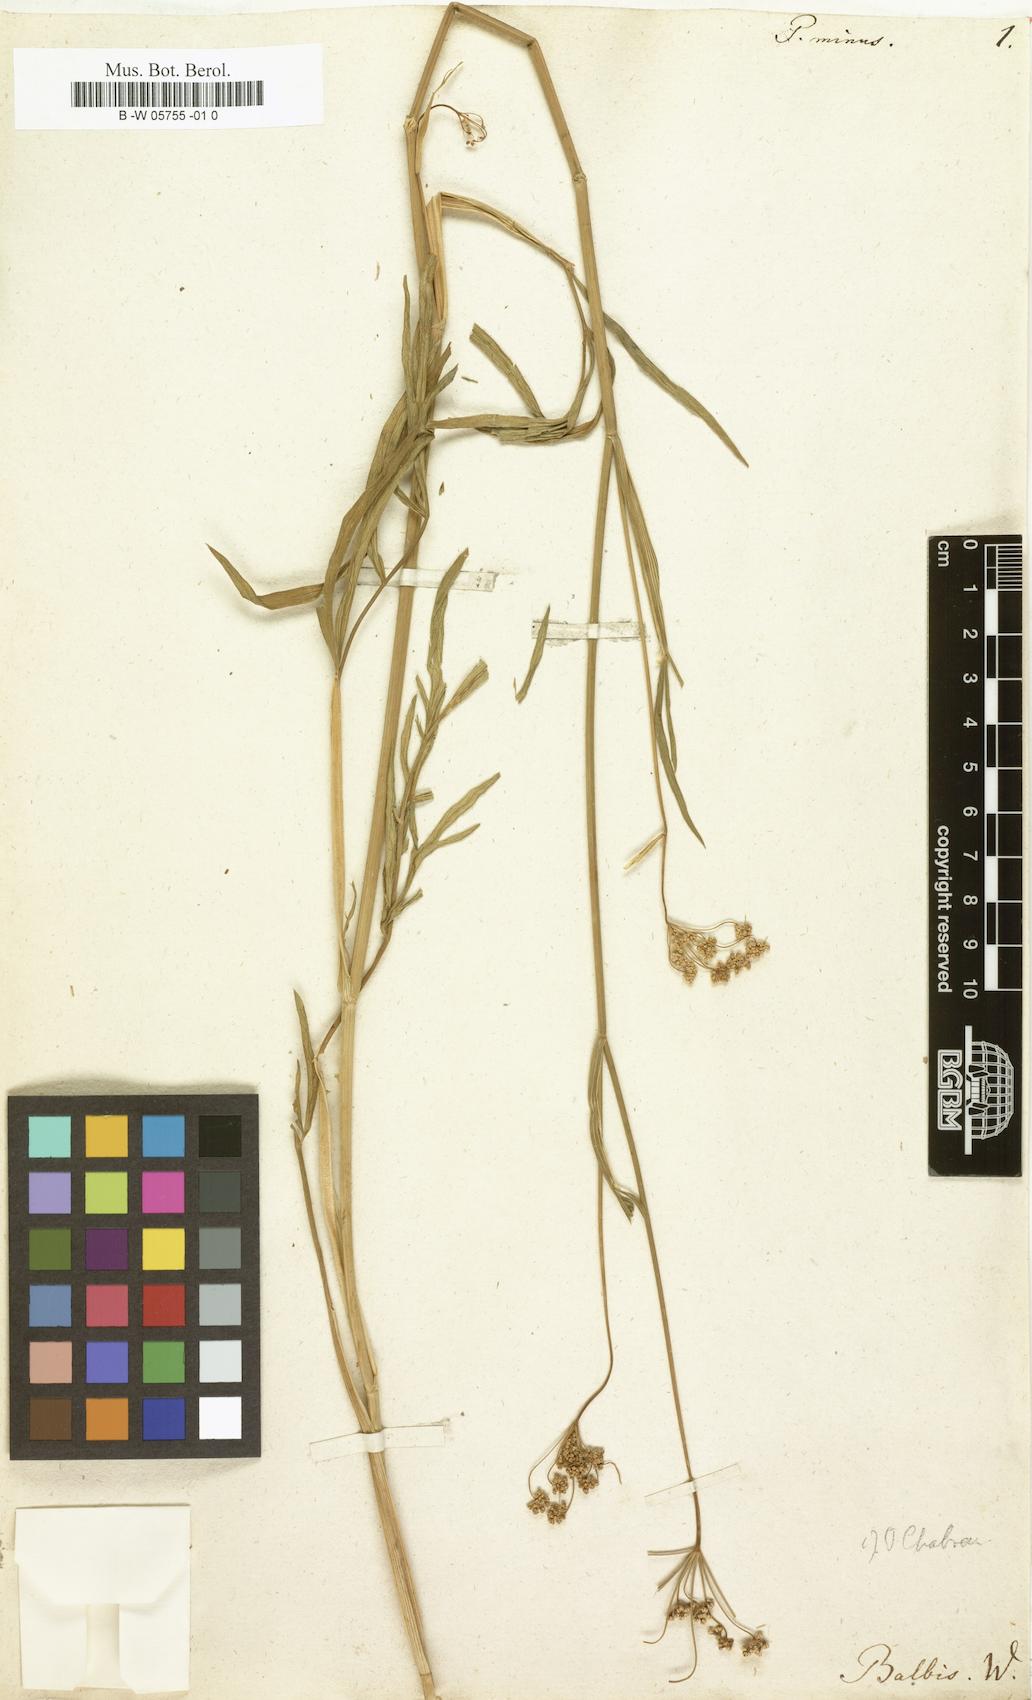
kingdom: Plantae
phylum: Tracheophyta
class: Magnoliopsida
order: Apiales
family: Apiaceae
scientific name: Apiaceae
